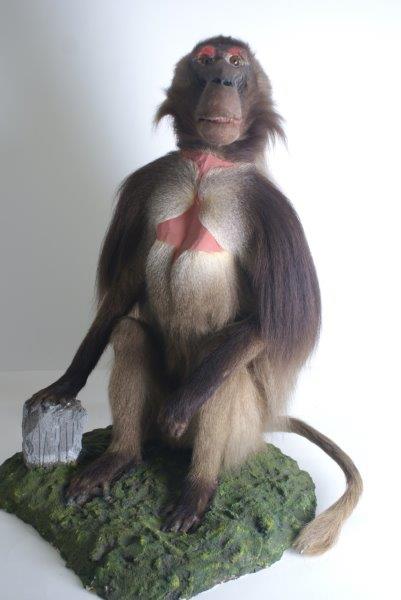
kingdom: Animalia
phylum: Chordata
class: Mammalia
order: Primates
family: Cercopithecidae
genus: Theropithecus
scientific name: Theropithecus gelada
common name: Gelada
